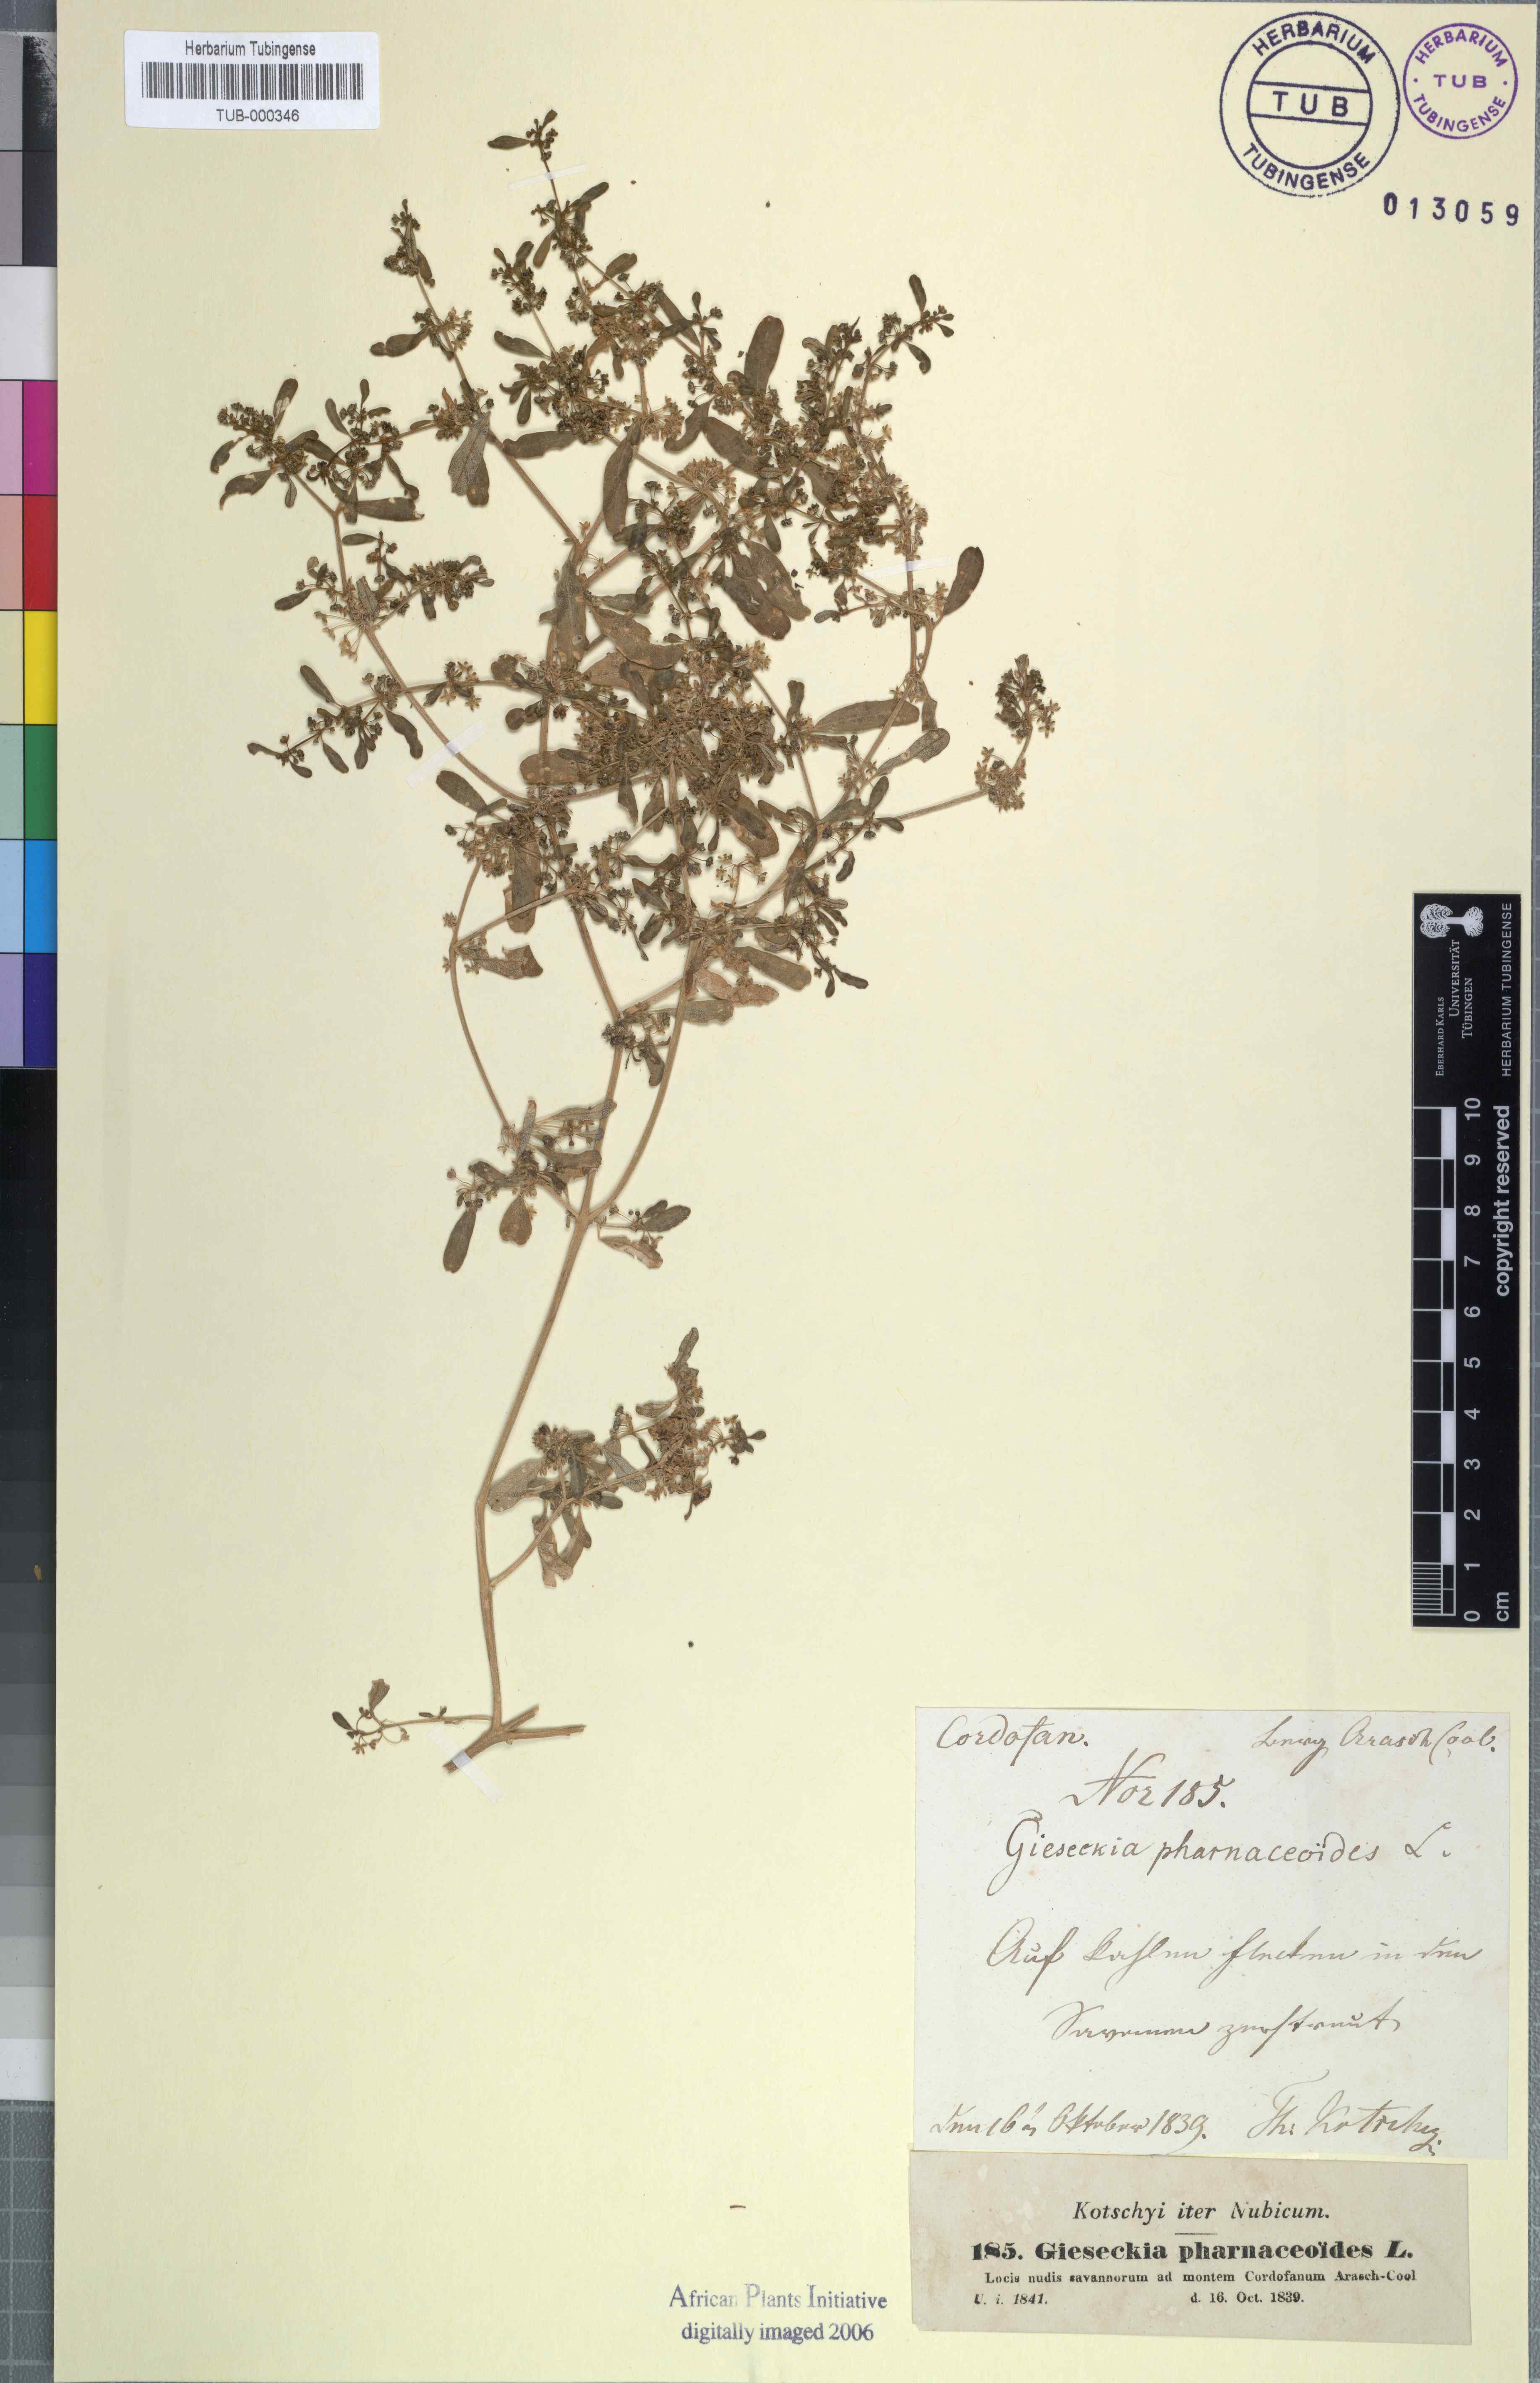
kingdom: Plantae
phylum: Tracheophyta
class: Magnoliopsida
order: Caryophyllales
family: Gisekiaceae
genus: Gisekia
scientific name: Gisekia pharnaceoides
